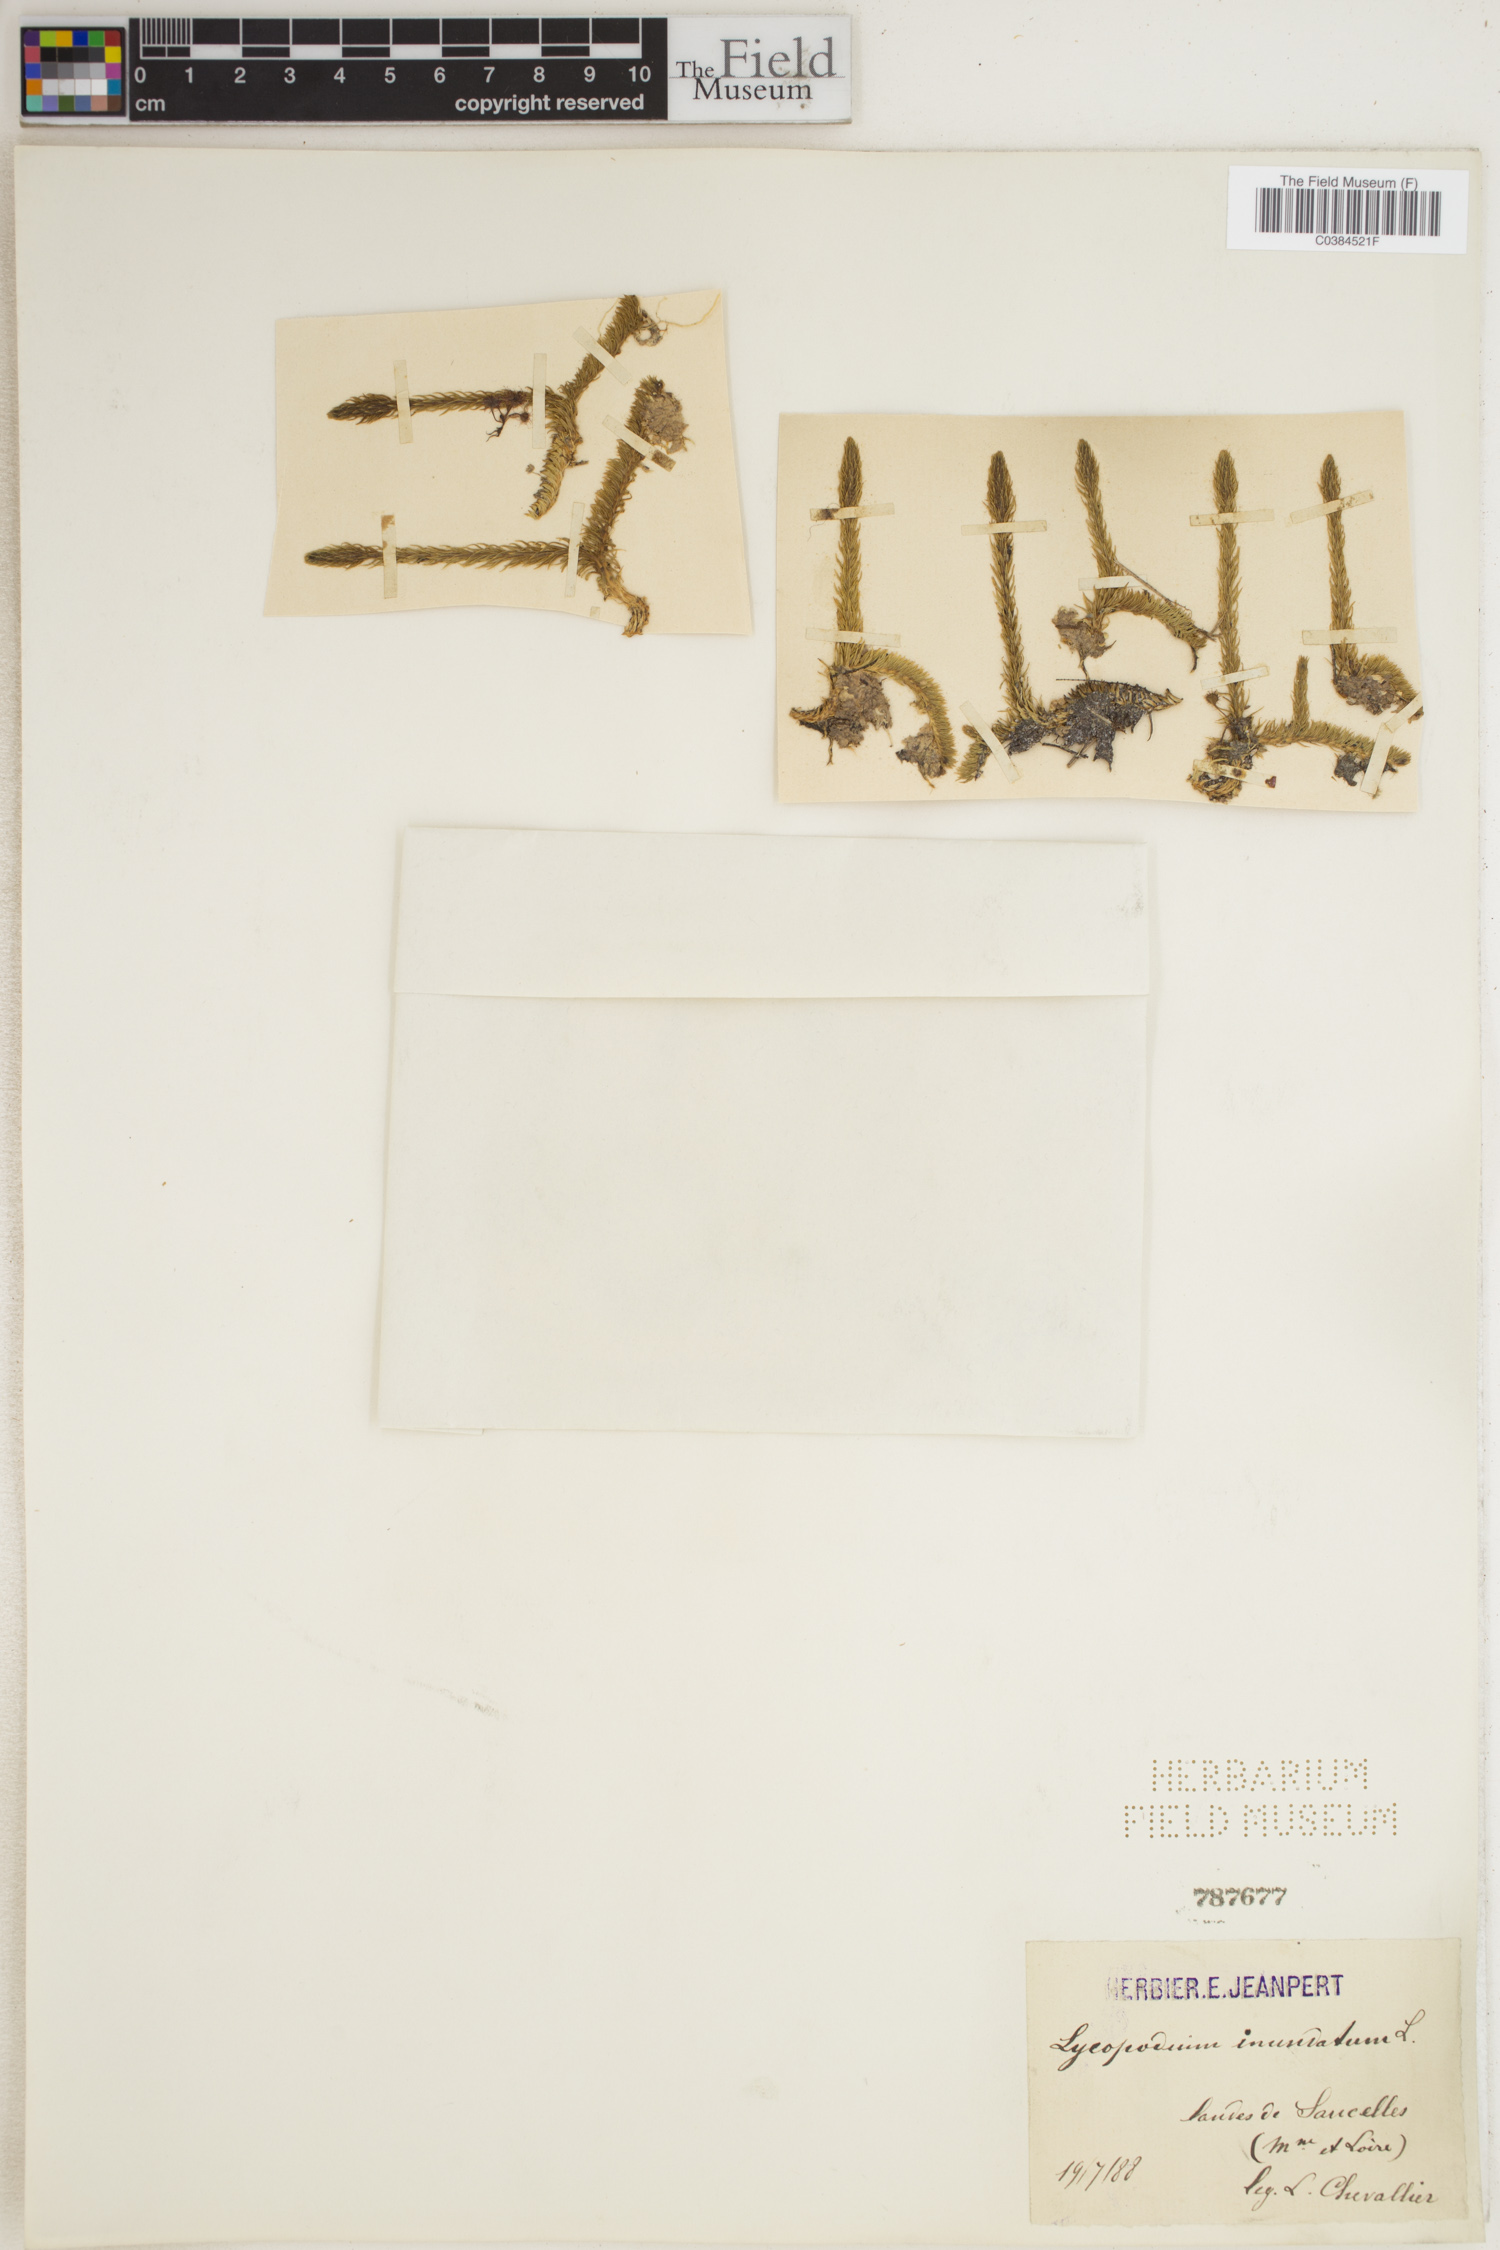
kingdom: Plantae
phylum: Tracheophyta
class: Lycopodiopsida
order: Lycopodiales
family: Lycopodiaceae
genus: Lycopodiella
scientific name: Lycopodiella inundata
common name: Marsh clubmoss
